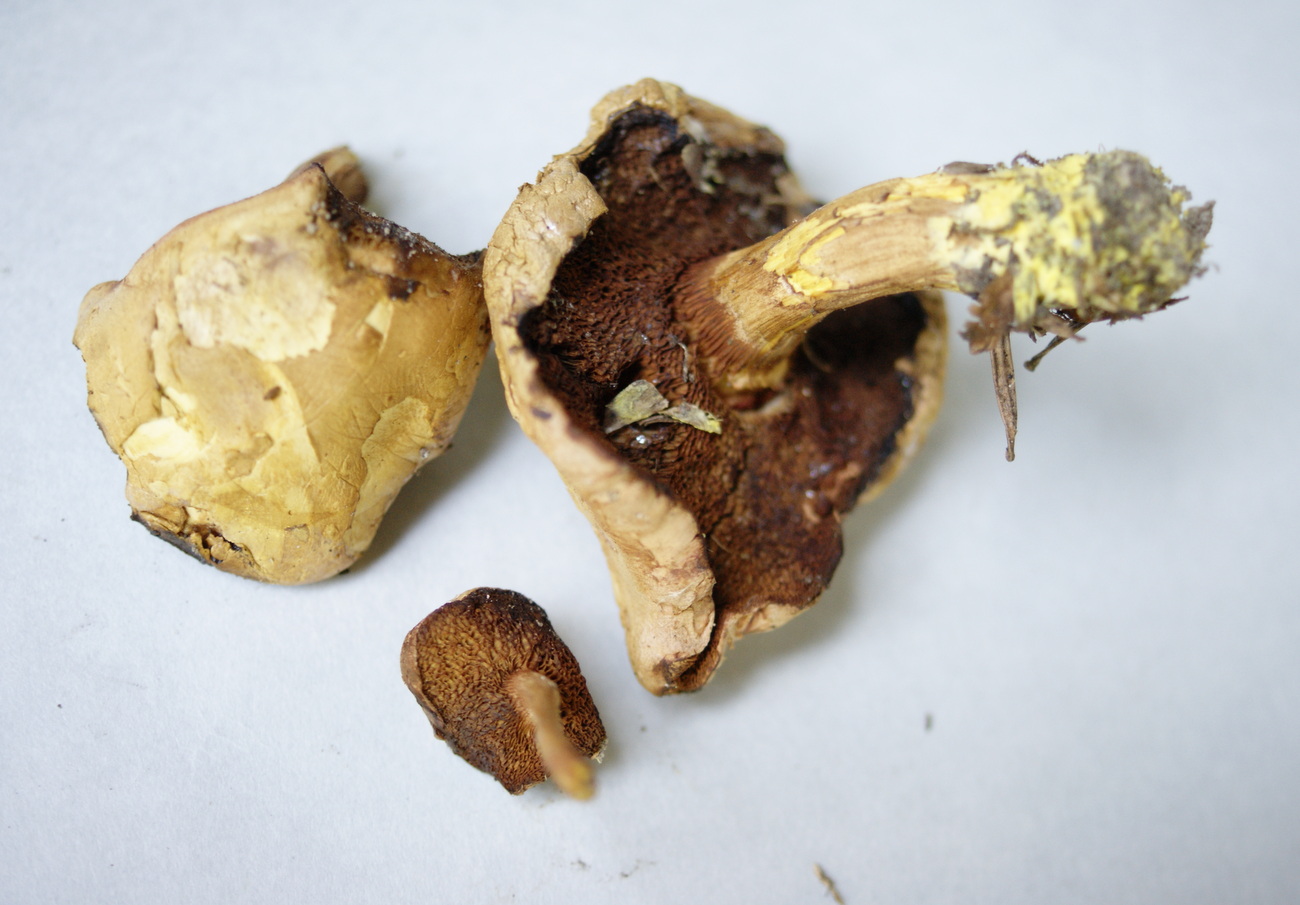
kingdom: Fungi
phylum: Basidiomycota
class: Agaricomycetes
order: Boletales
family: Boletaceae
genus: Chalciporus
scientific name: Chalciporus piperatus
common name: peberrørhat
